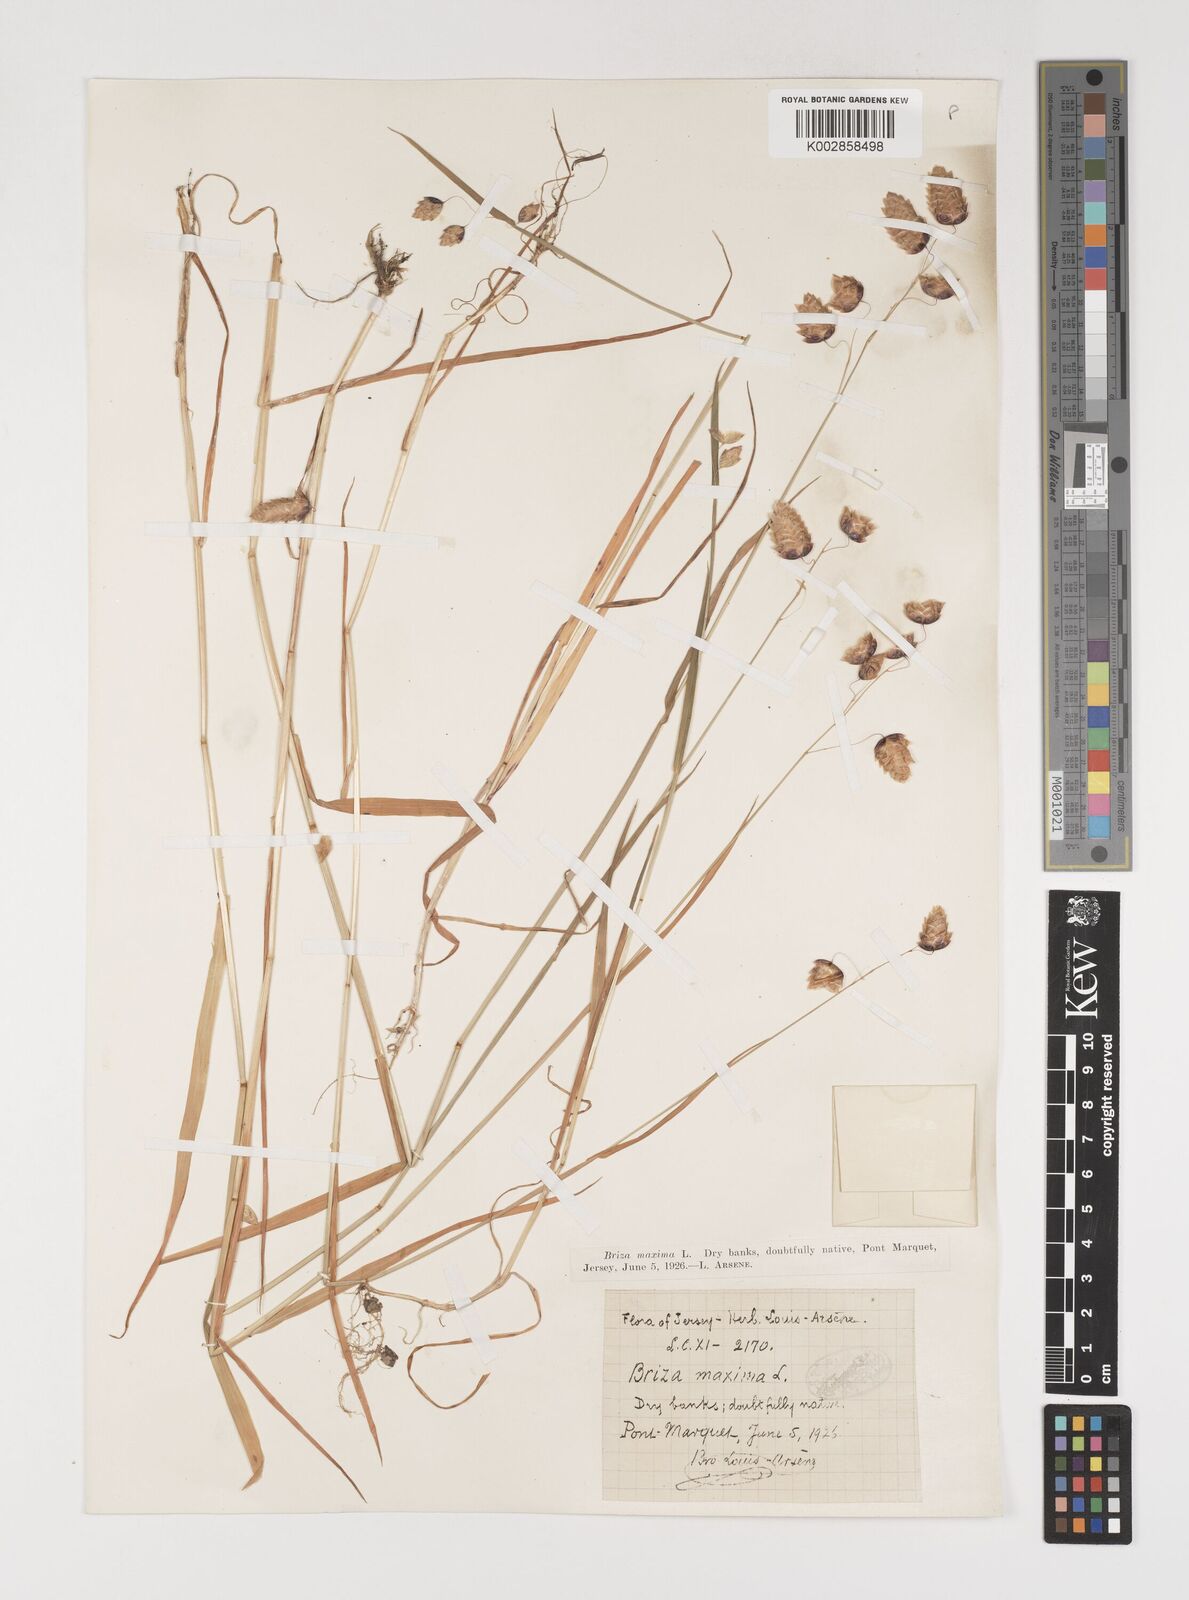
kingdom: Plantae
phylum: Tracheophyta
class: Liliopsida
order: Poales
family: Poaceae
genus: Briza
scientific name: Briza maxima
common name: Big quakinggrass
